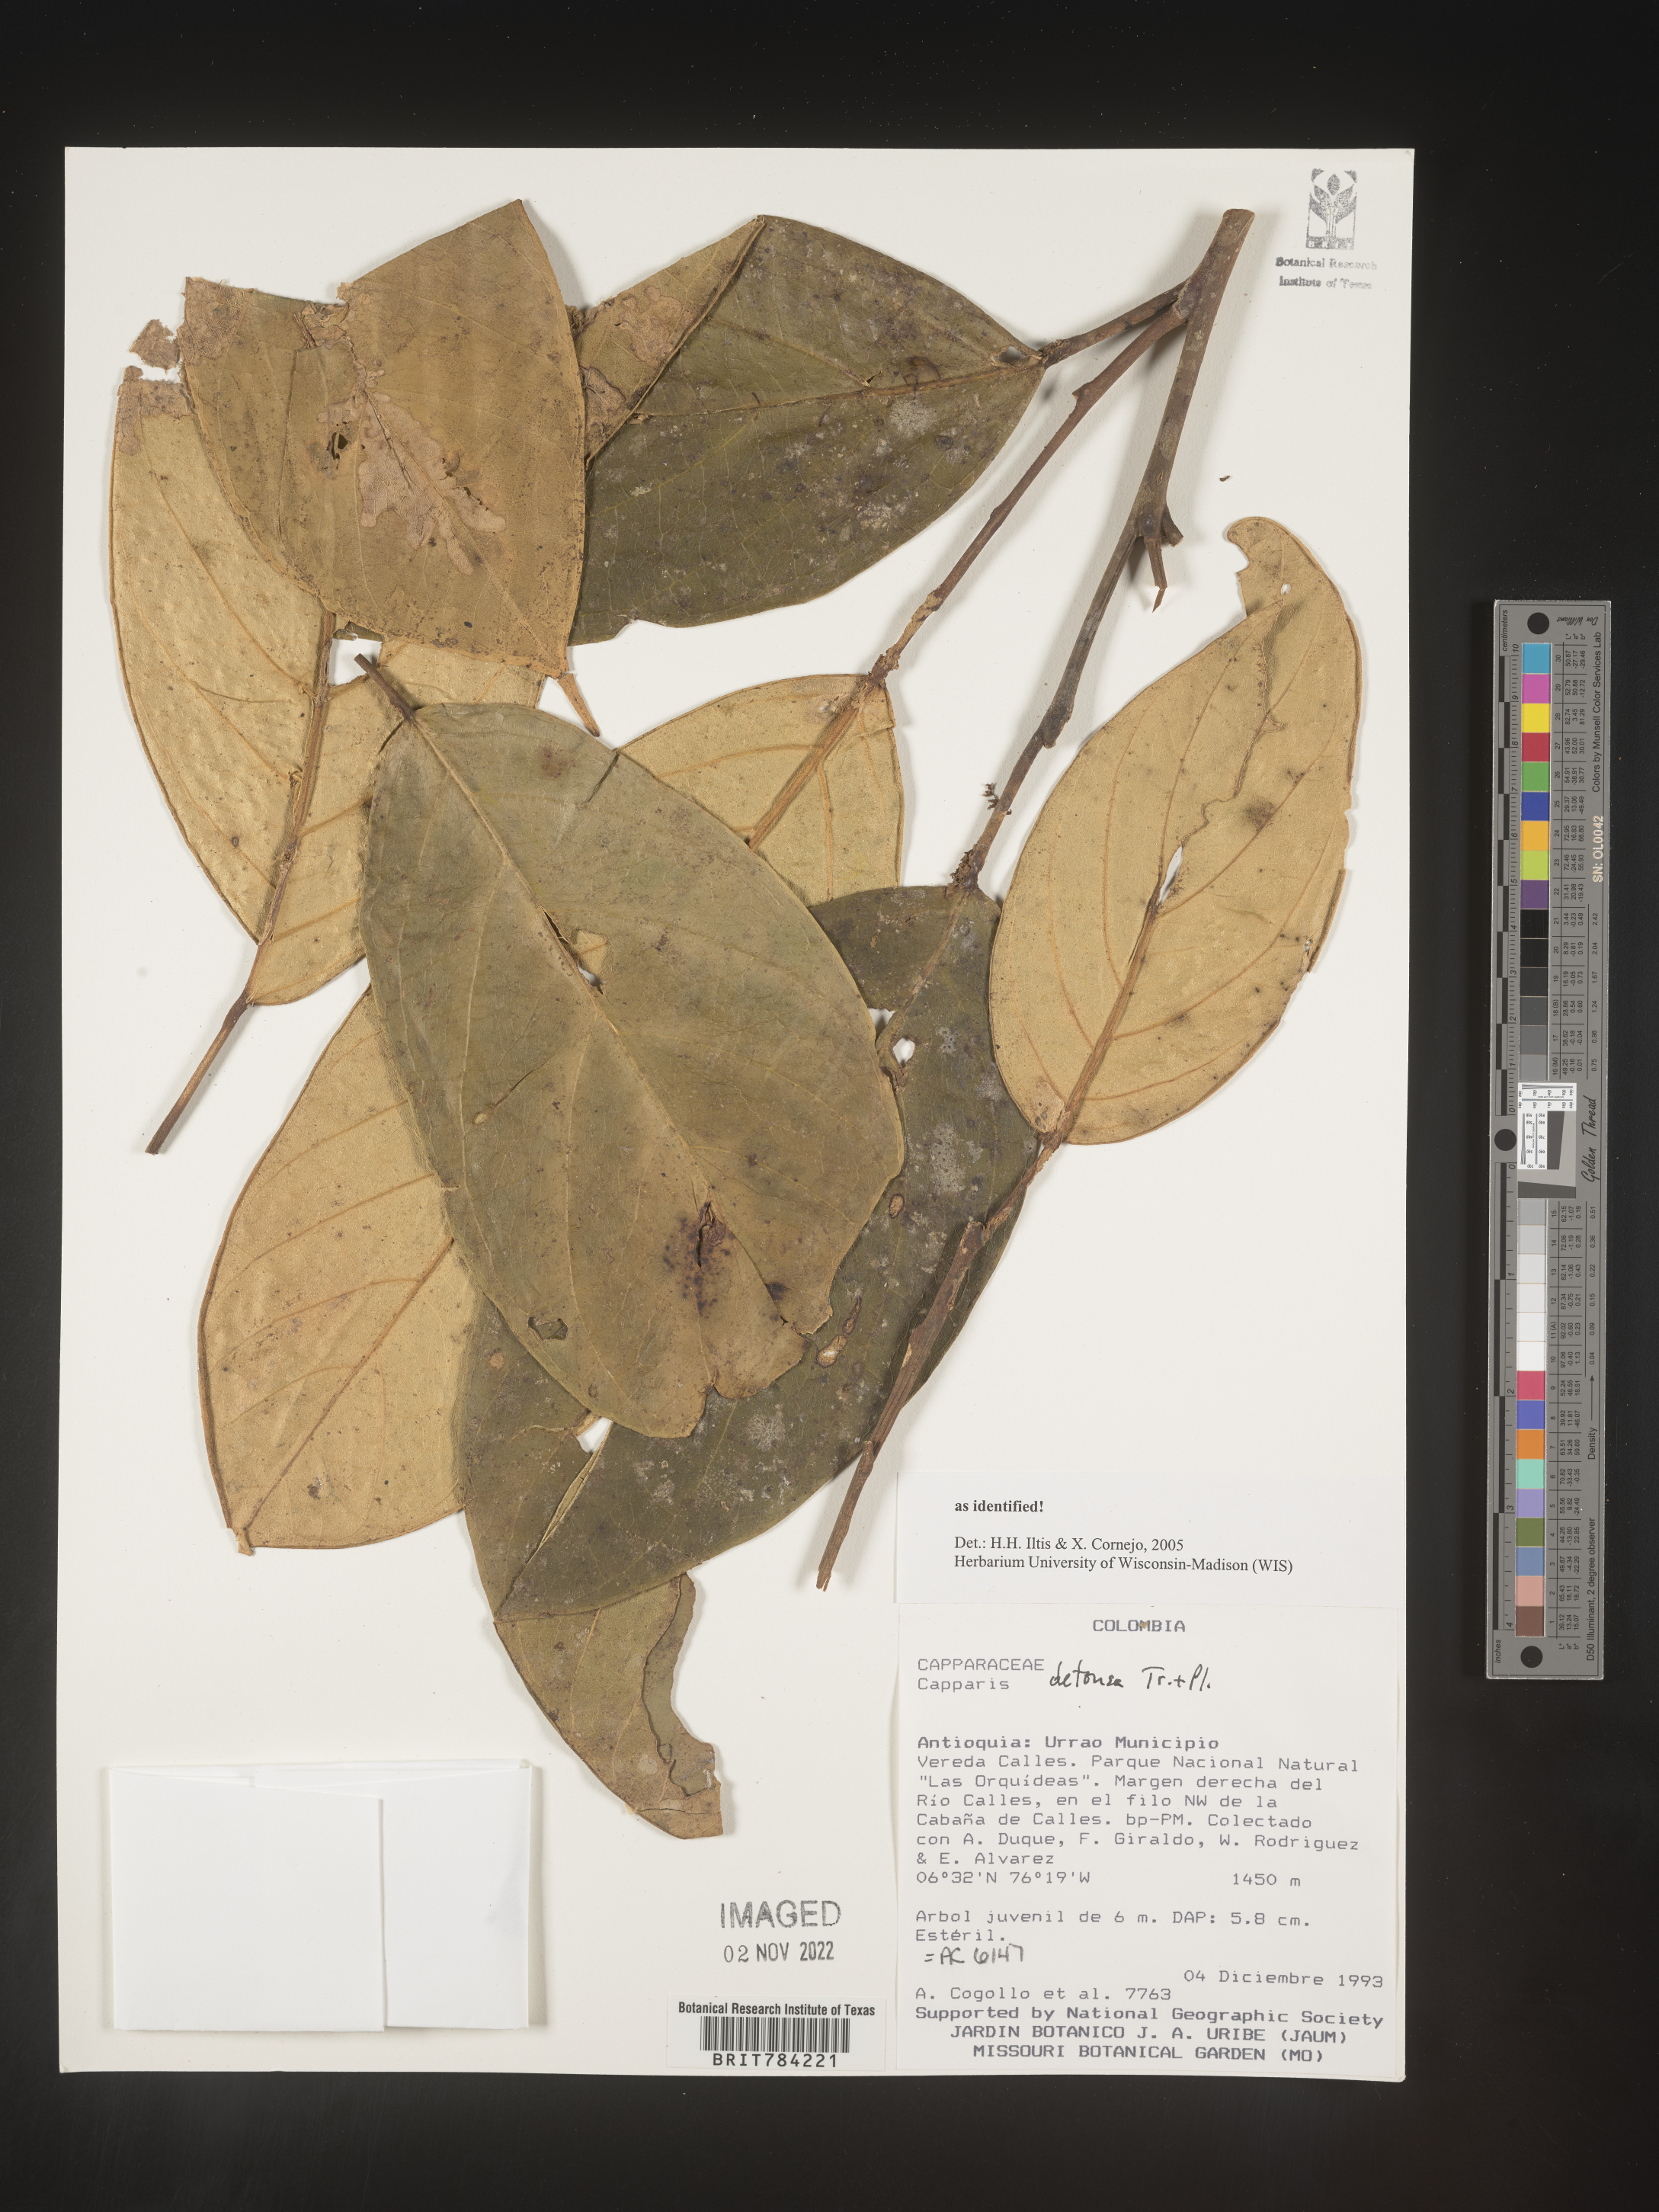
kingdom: Plantae
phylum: Tracheophyta
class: Magnoliopsida
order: Brassicales
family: Capparaceae
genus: Capparis
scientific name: Capparis
